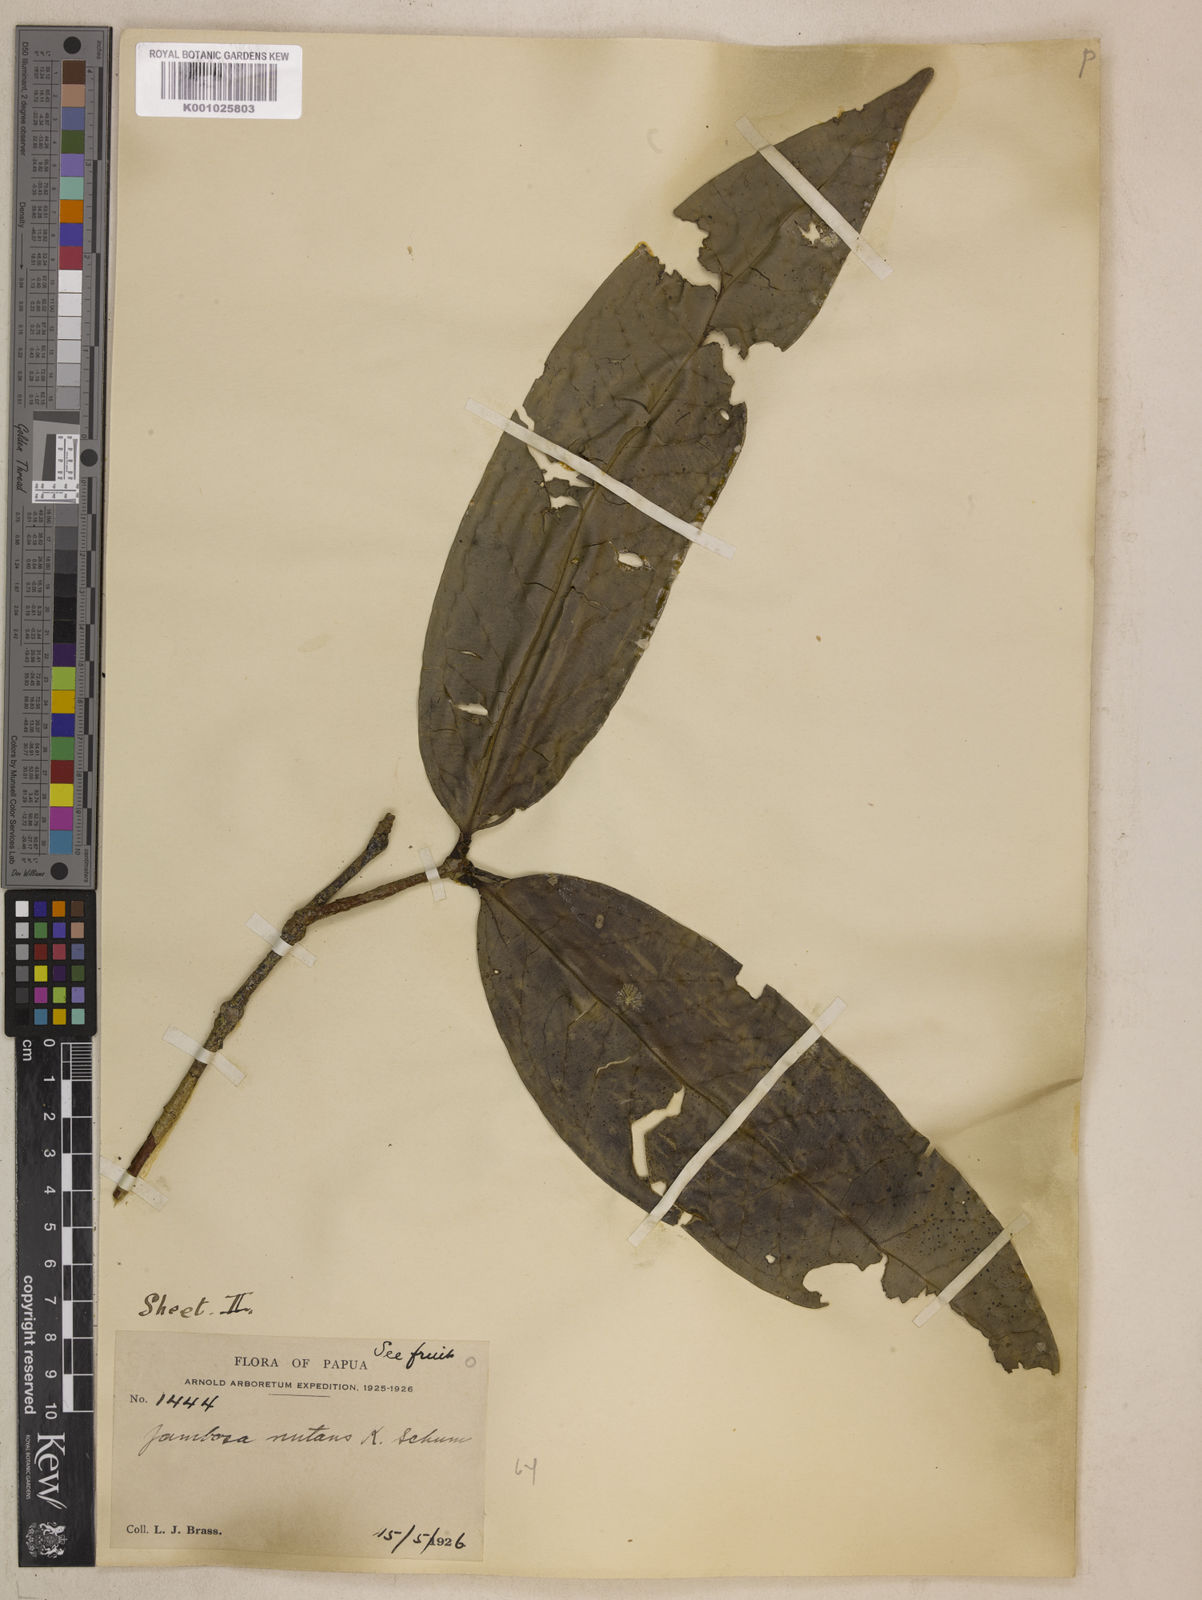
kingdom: Plantae
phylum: Tracheophyta
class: Magnoliopsida
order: Myrtales
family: Myrtaceae
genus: Syzygium
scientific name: Syzygium nutans
